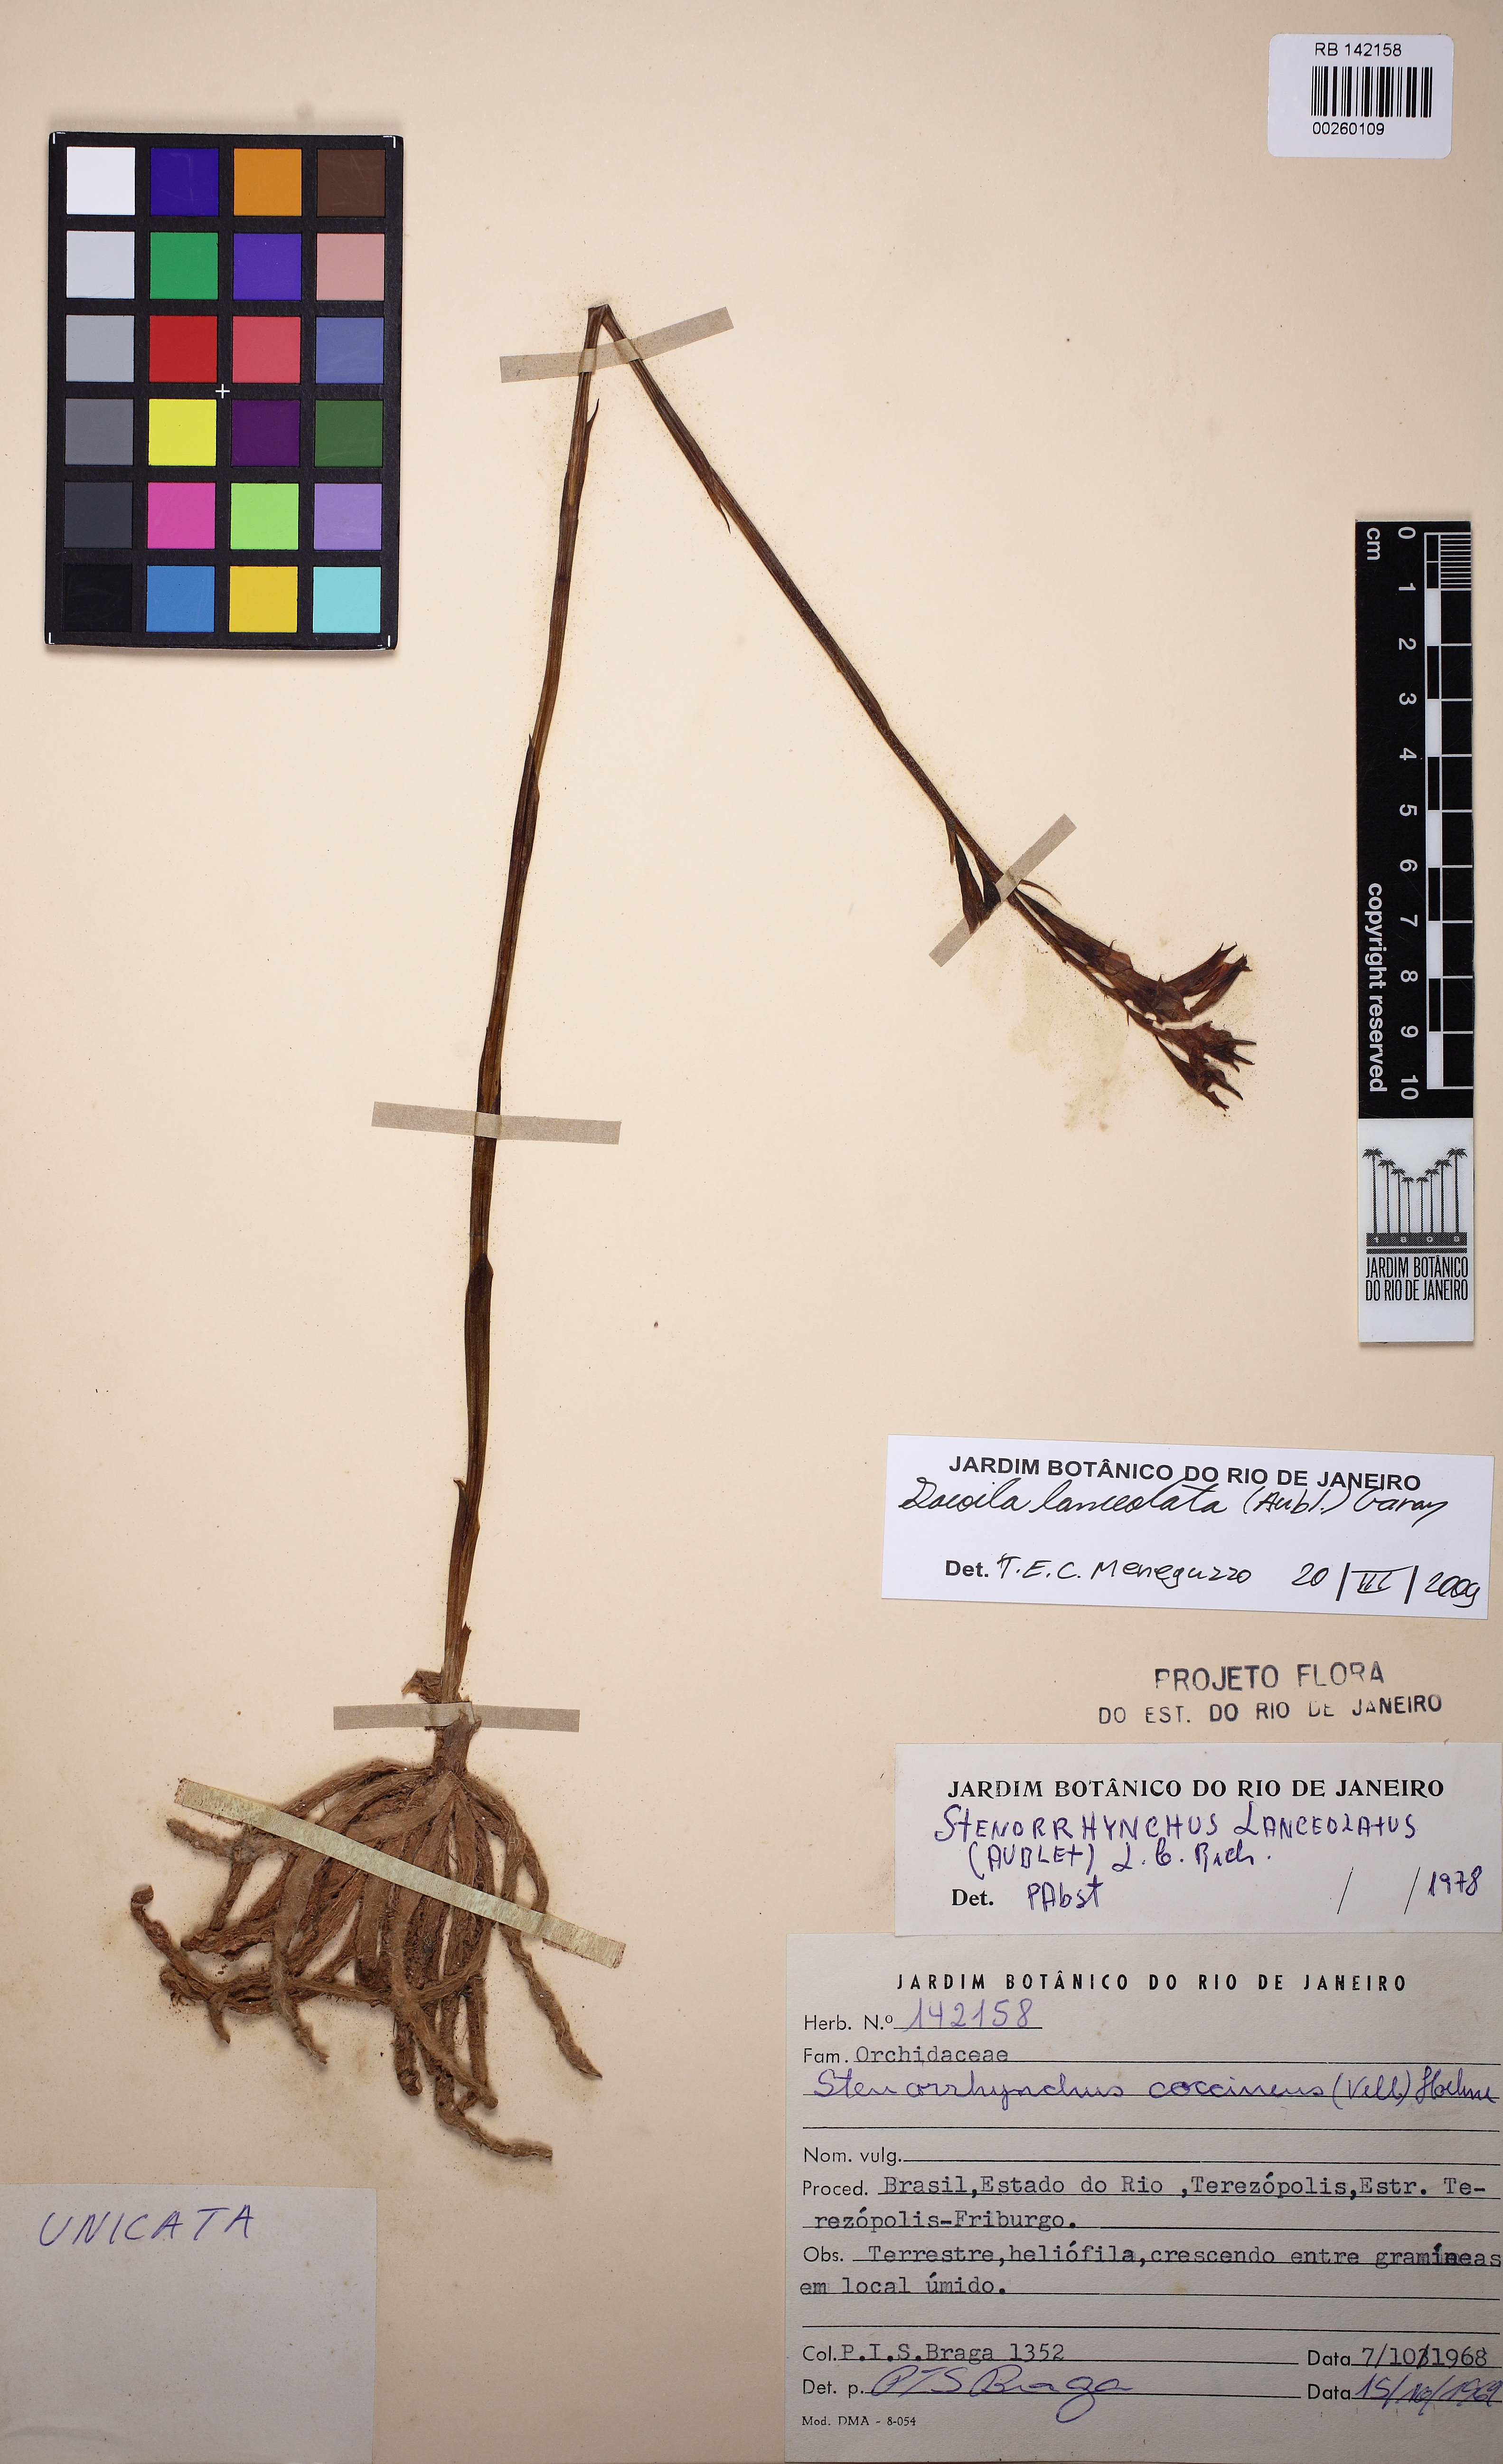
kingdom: Plantae
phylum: Tracheophyta
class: Liliopsida
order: Asparagales
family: Orchidaceae
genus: Sacoila
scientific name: Sacoila lanceolata
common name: Leafless beaked ladiestresses
